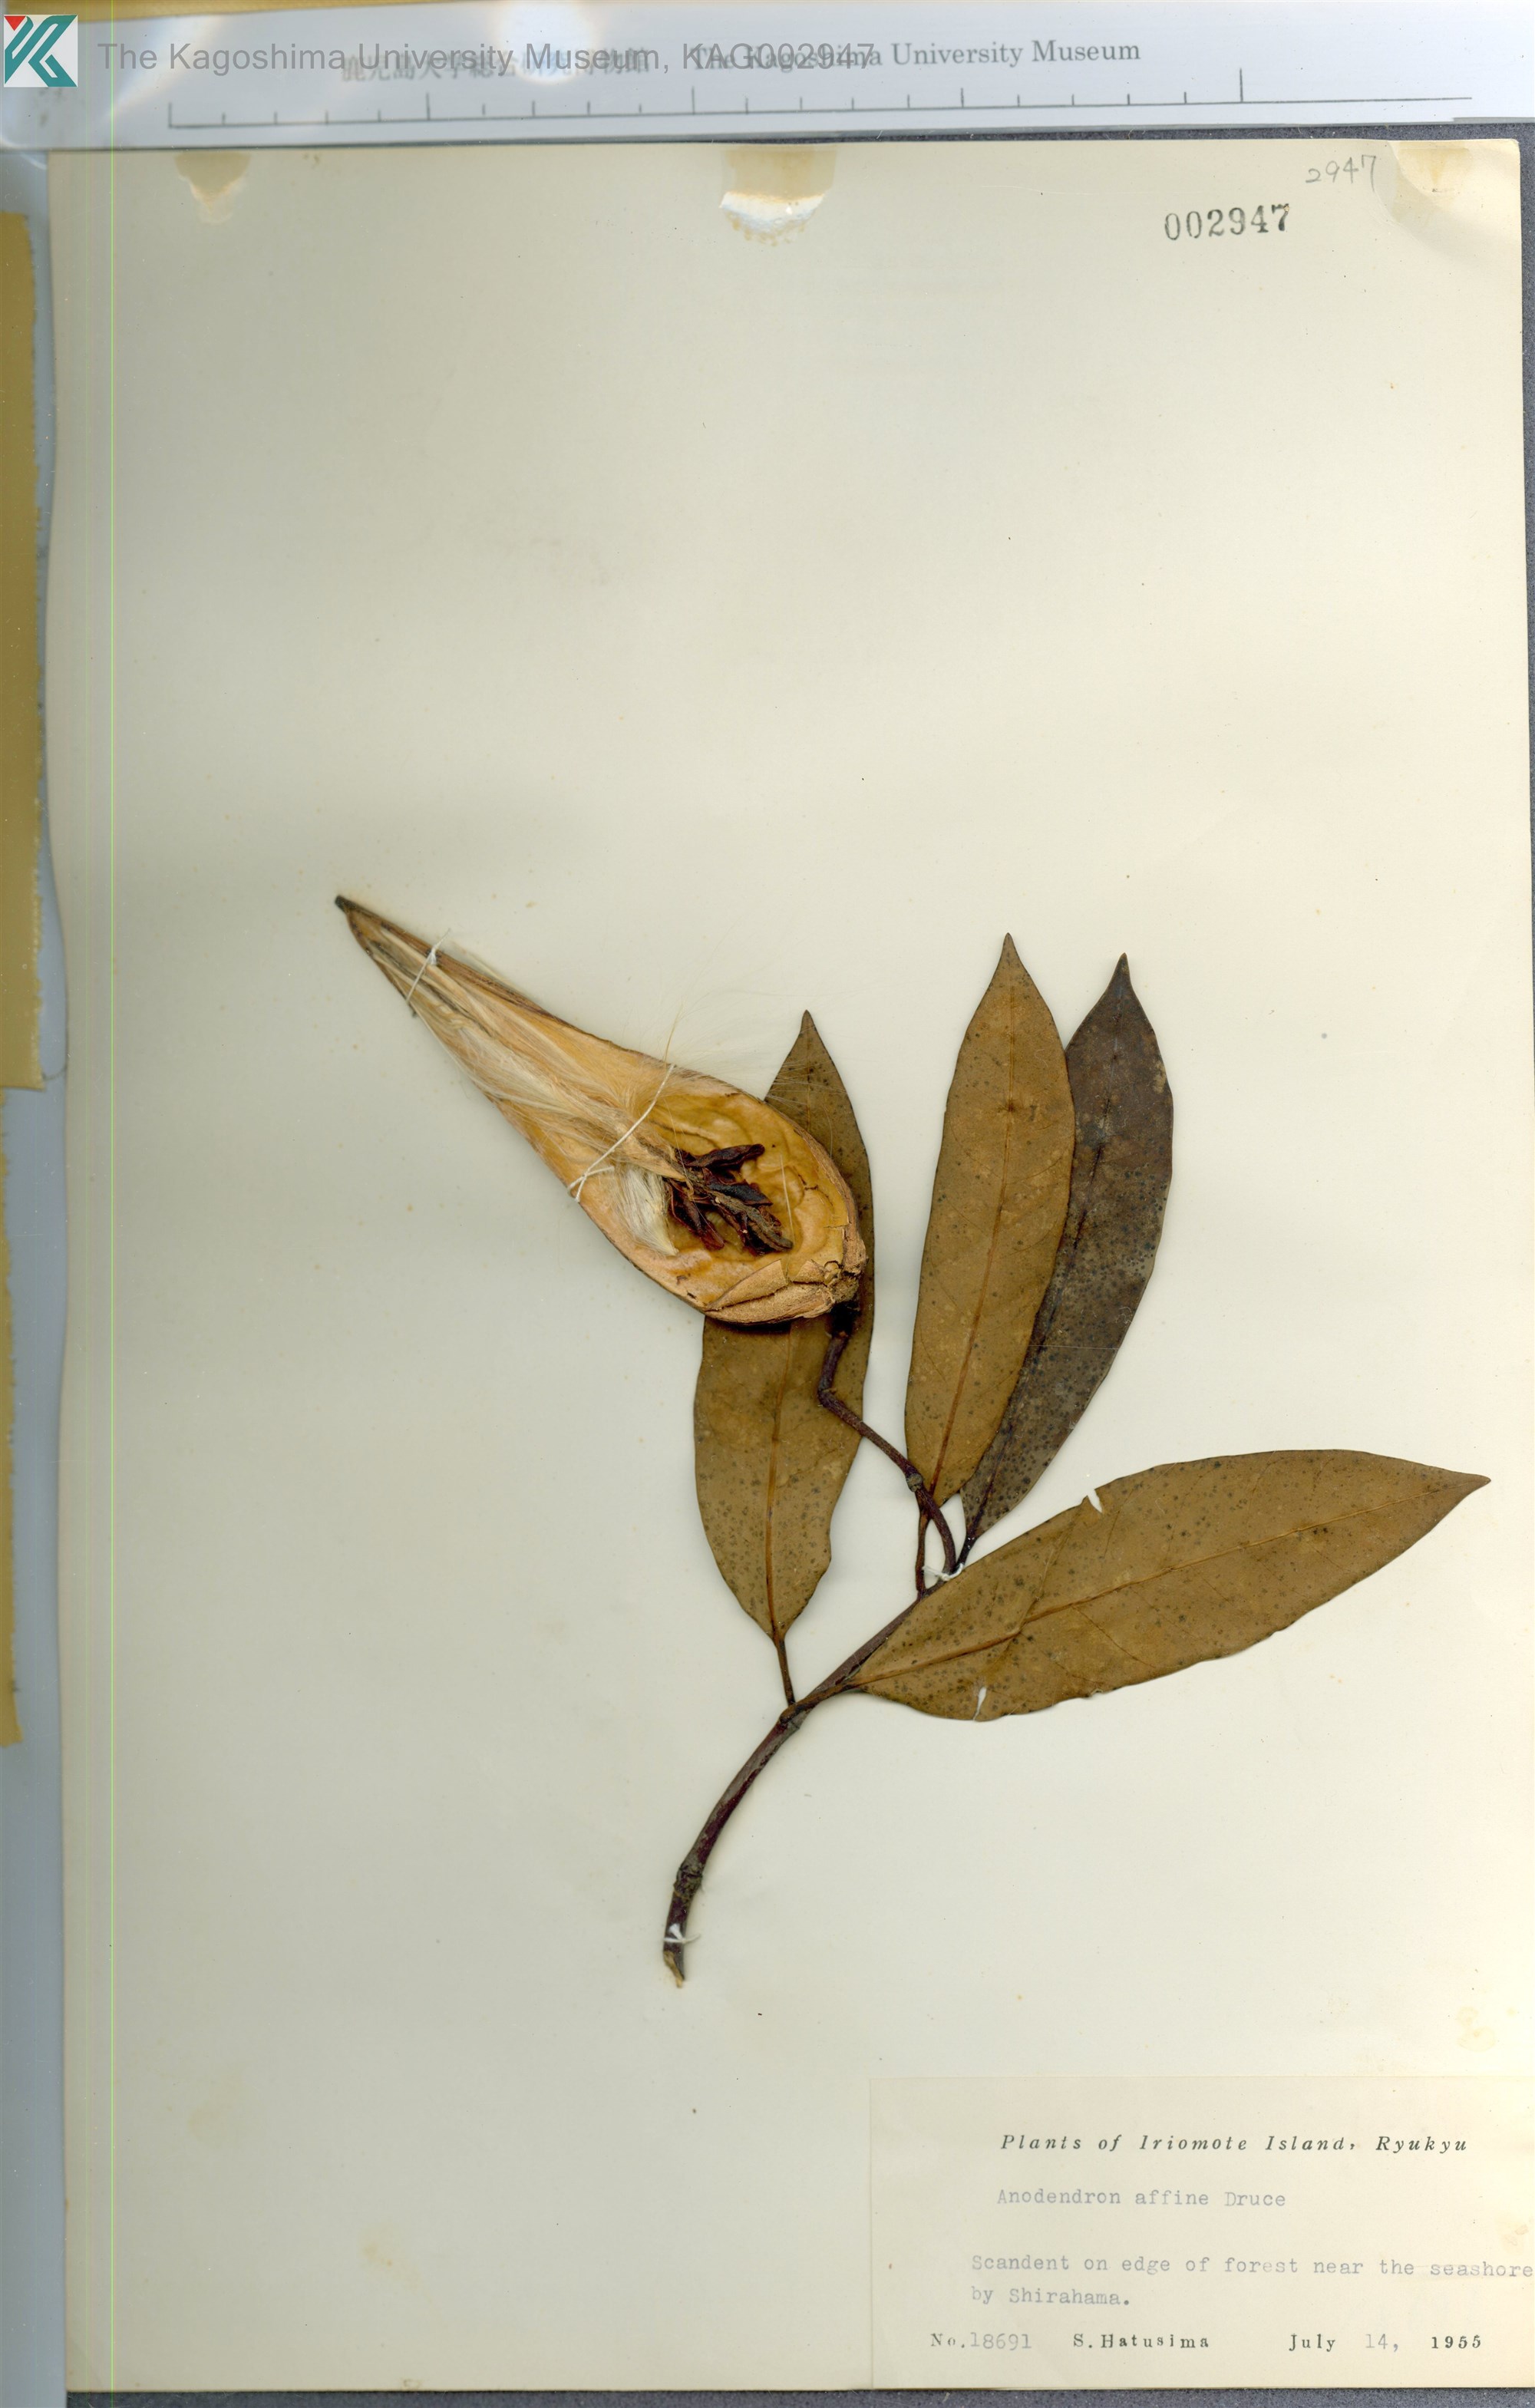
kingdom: Plantae
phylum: Tracheophyta
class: Magnoliopsida
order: Gentianales
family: Apocynaceae
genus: Anodendron
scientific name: Anodendron affine
